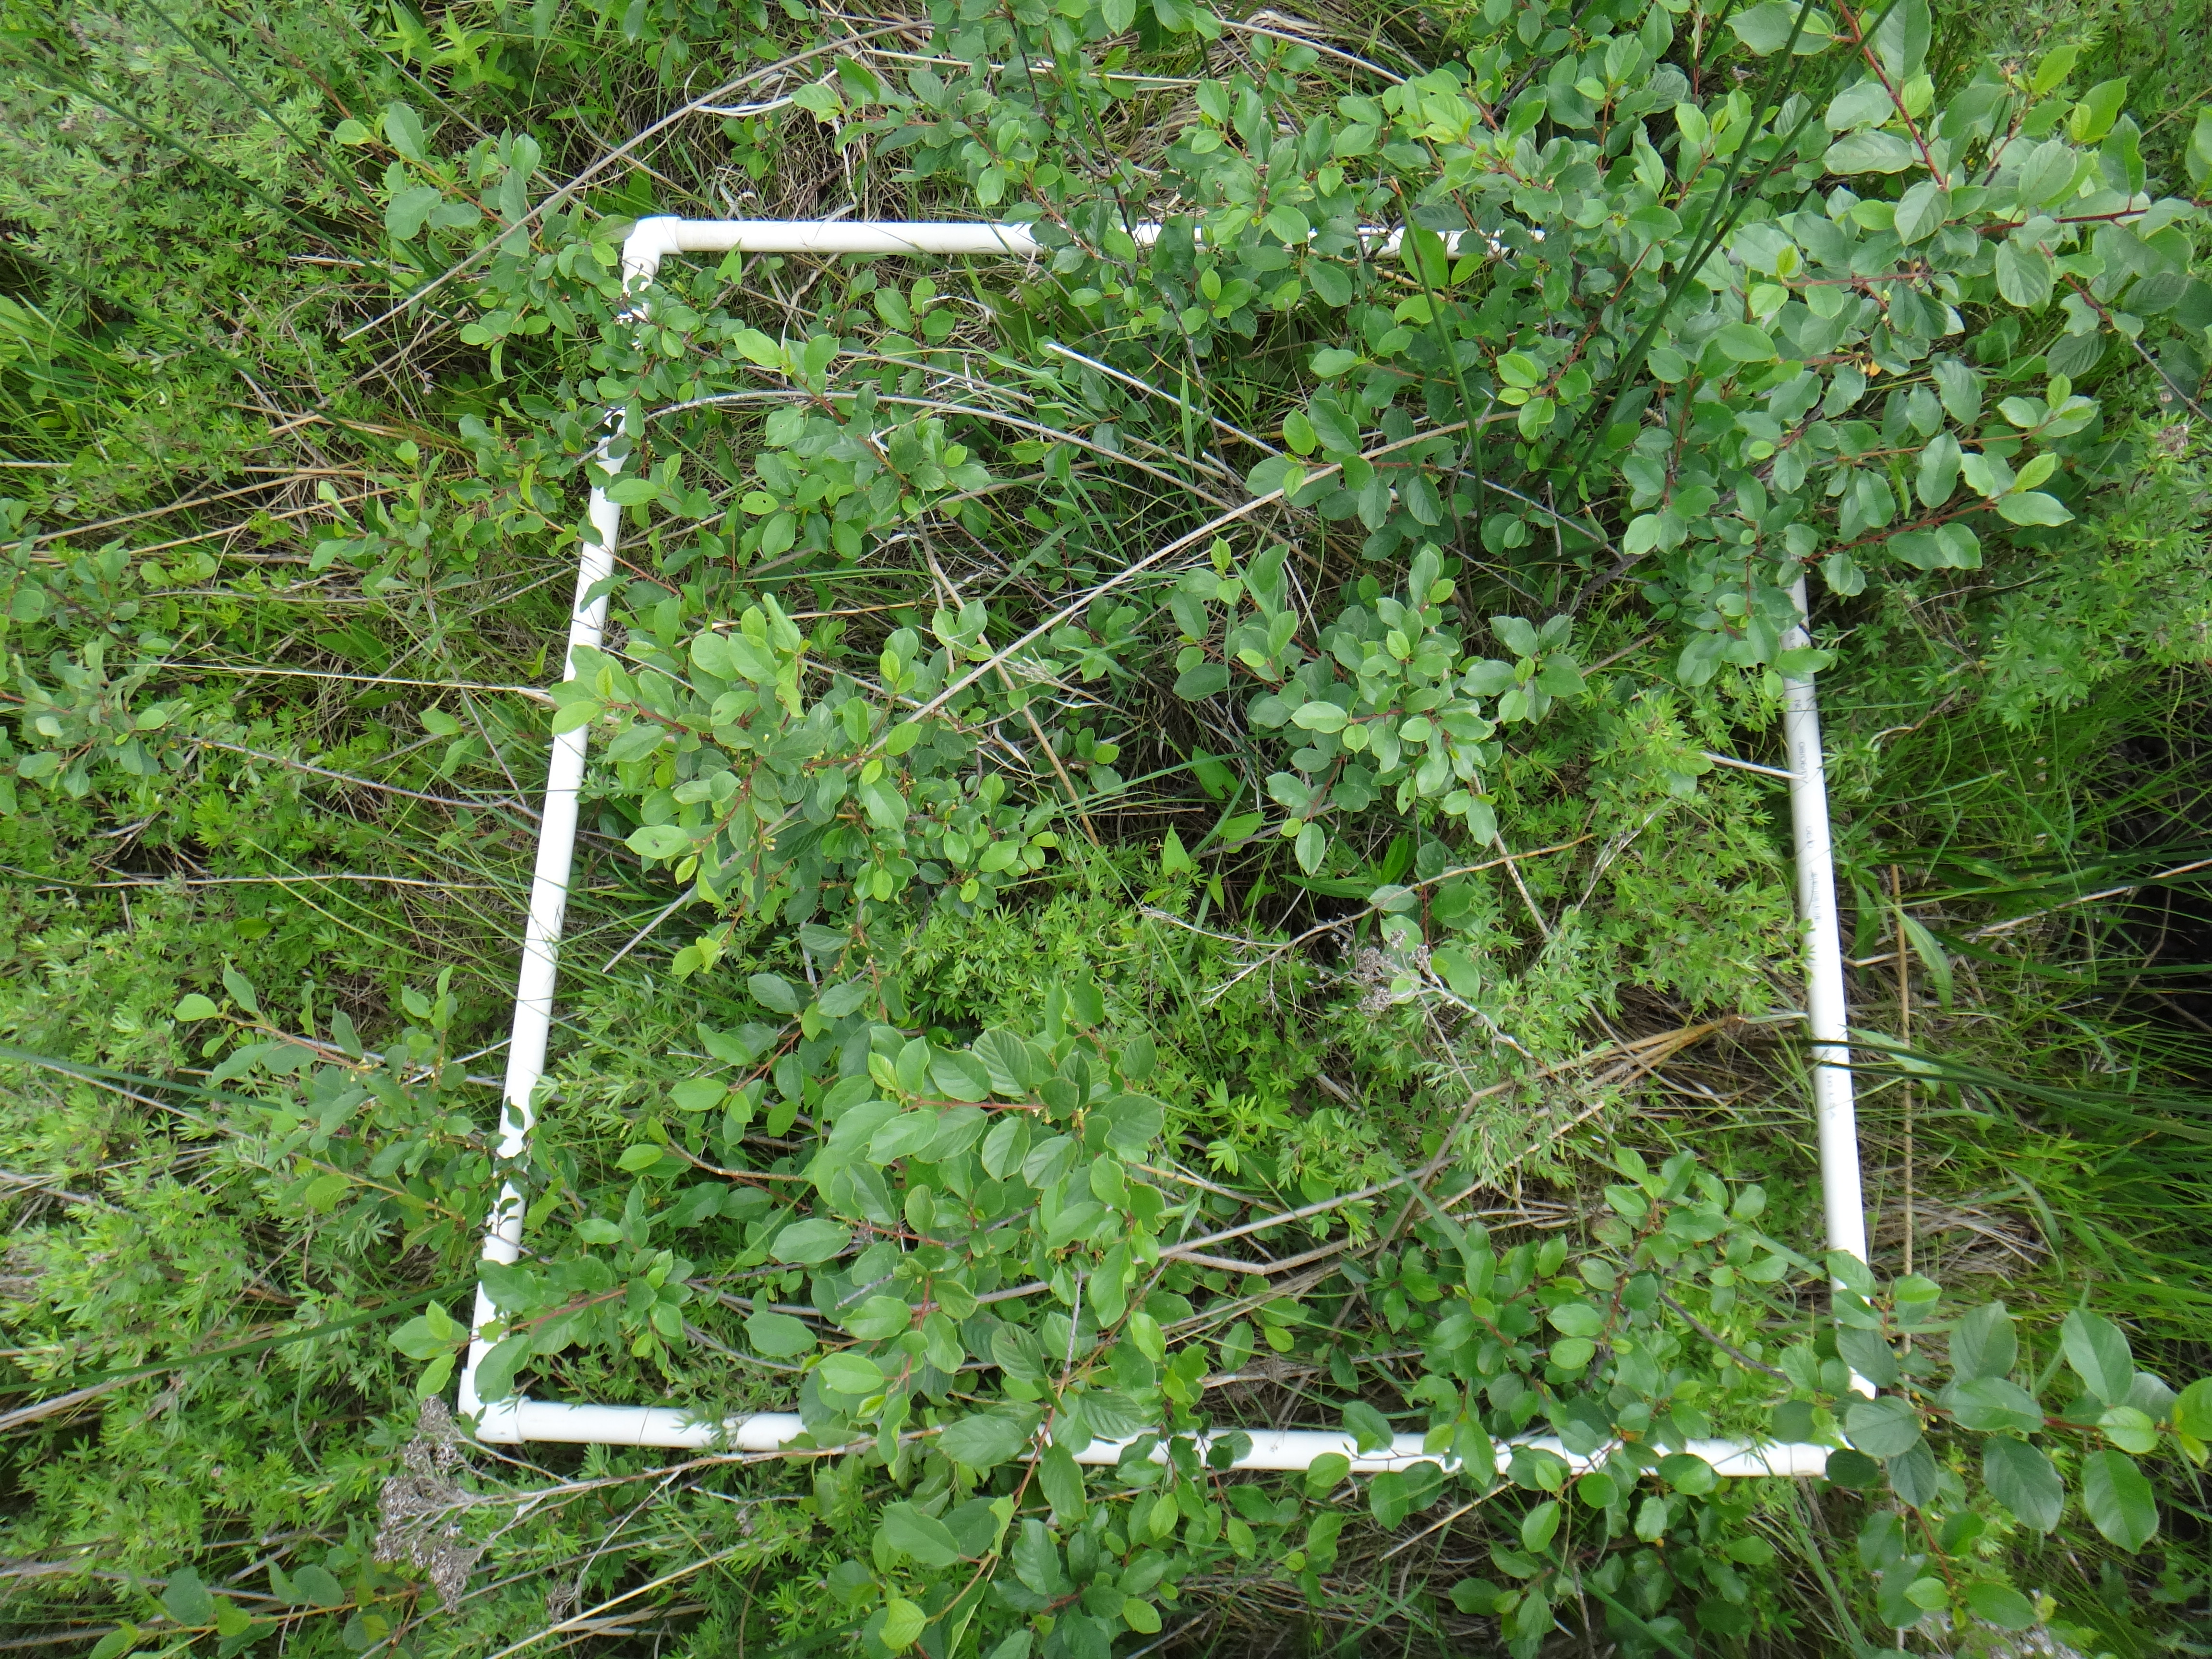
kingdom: Plantae
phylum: Tracheophyta
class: Magnoliopsida
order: Solanales
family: Convolvulaceae
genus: Calystegia
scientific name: Calystegia sepium
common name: Hedge bindweed
